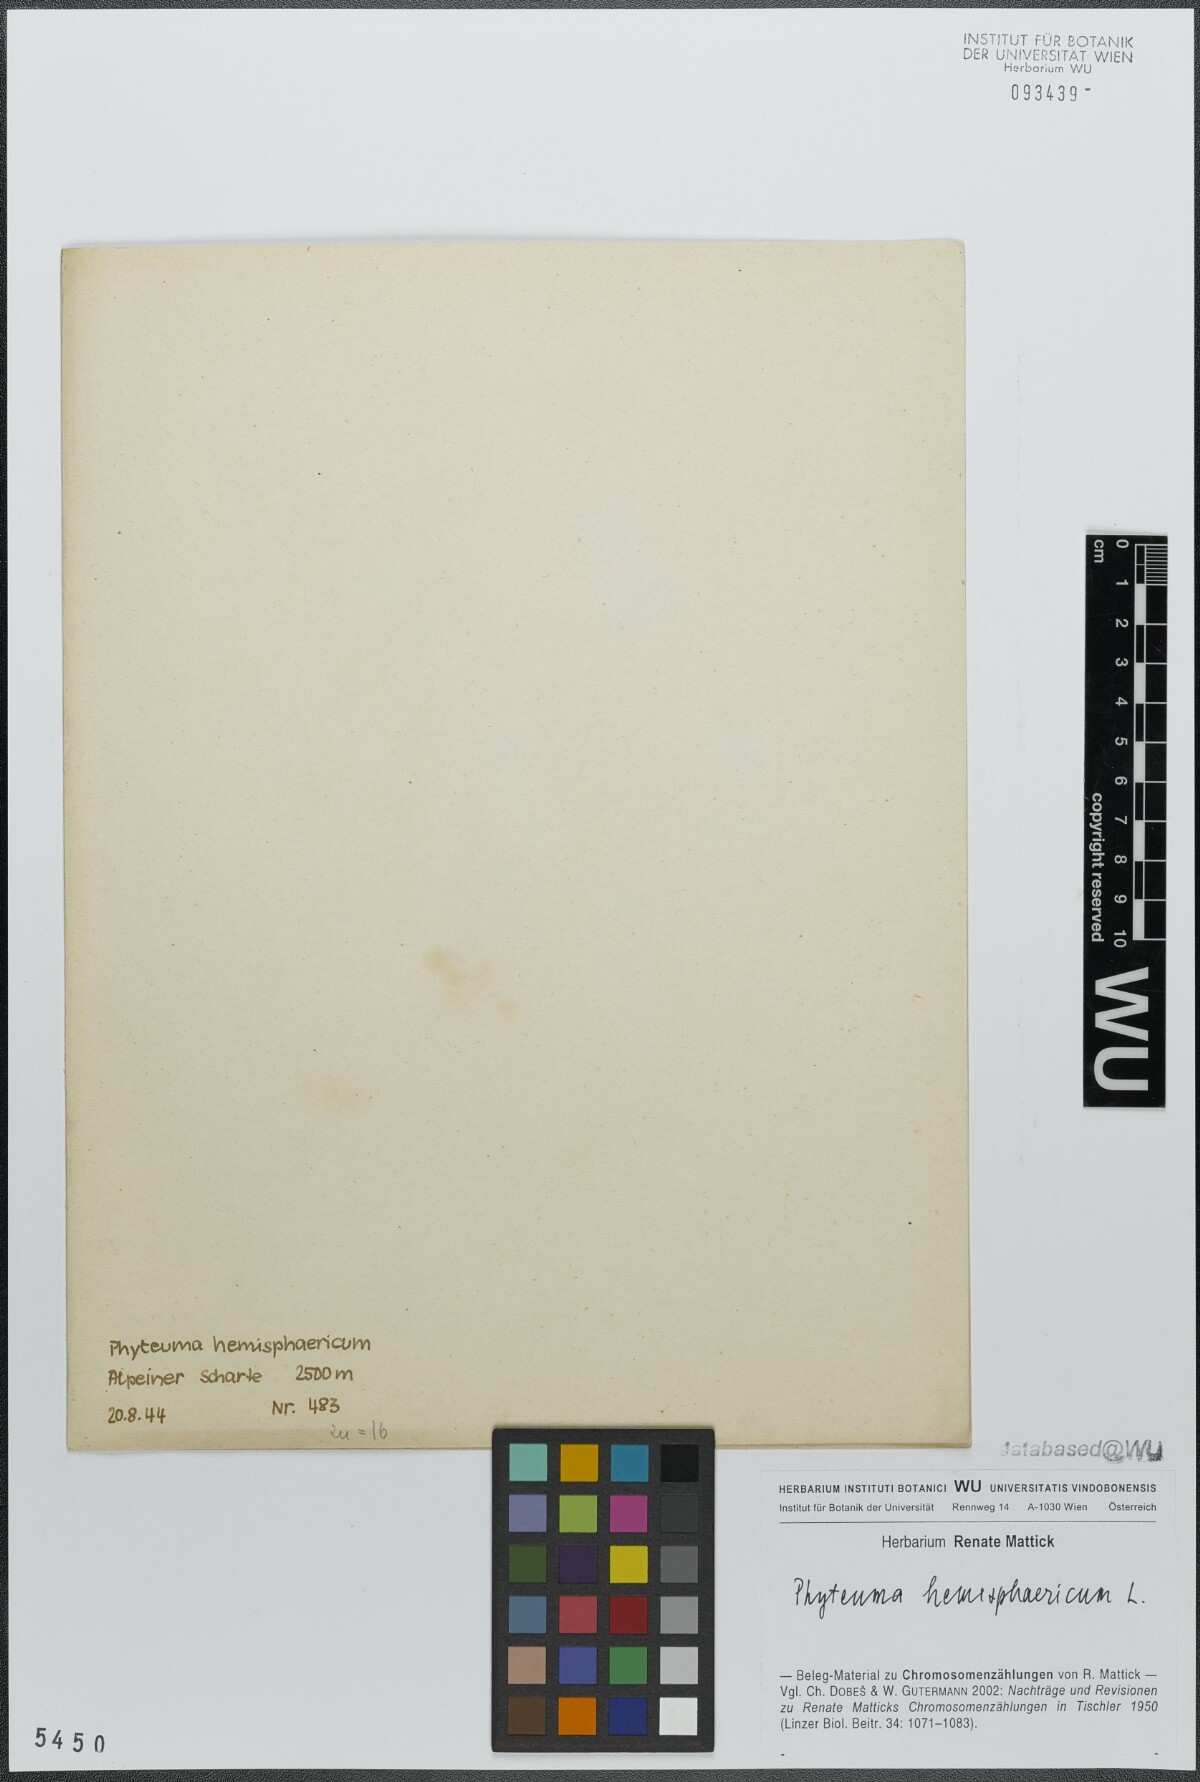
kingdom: Plantae
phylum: Tracheophyta
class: Magnoliopsida
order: Asterales
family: Campanulaceae
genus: Phyteuma
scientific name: Phyteuma hemisphaericum
